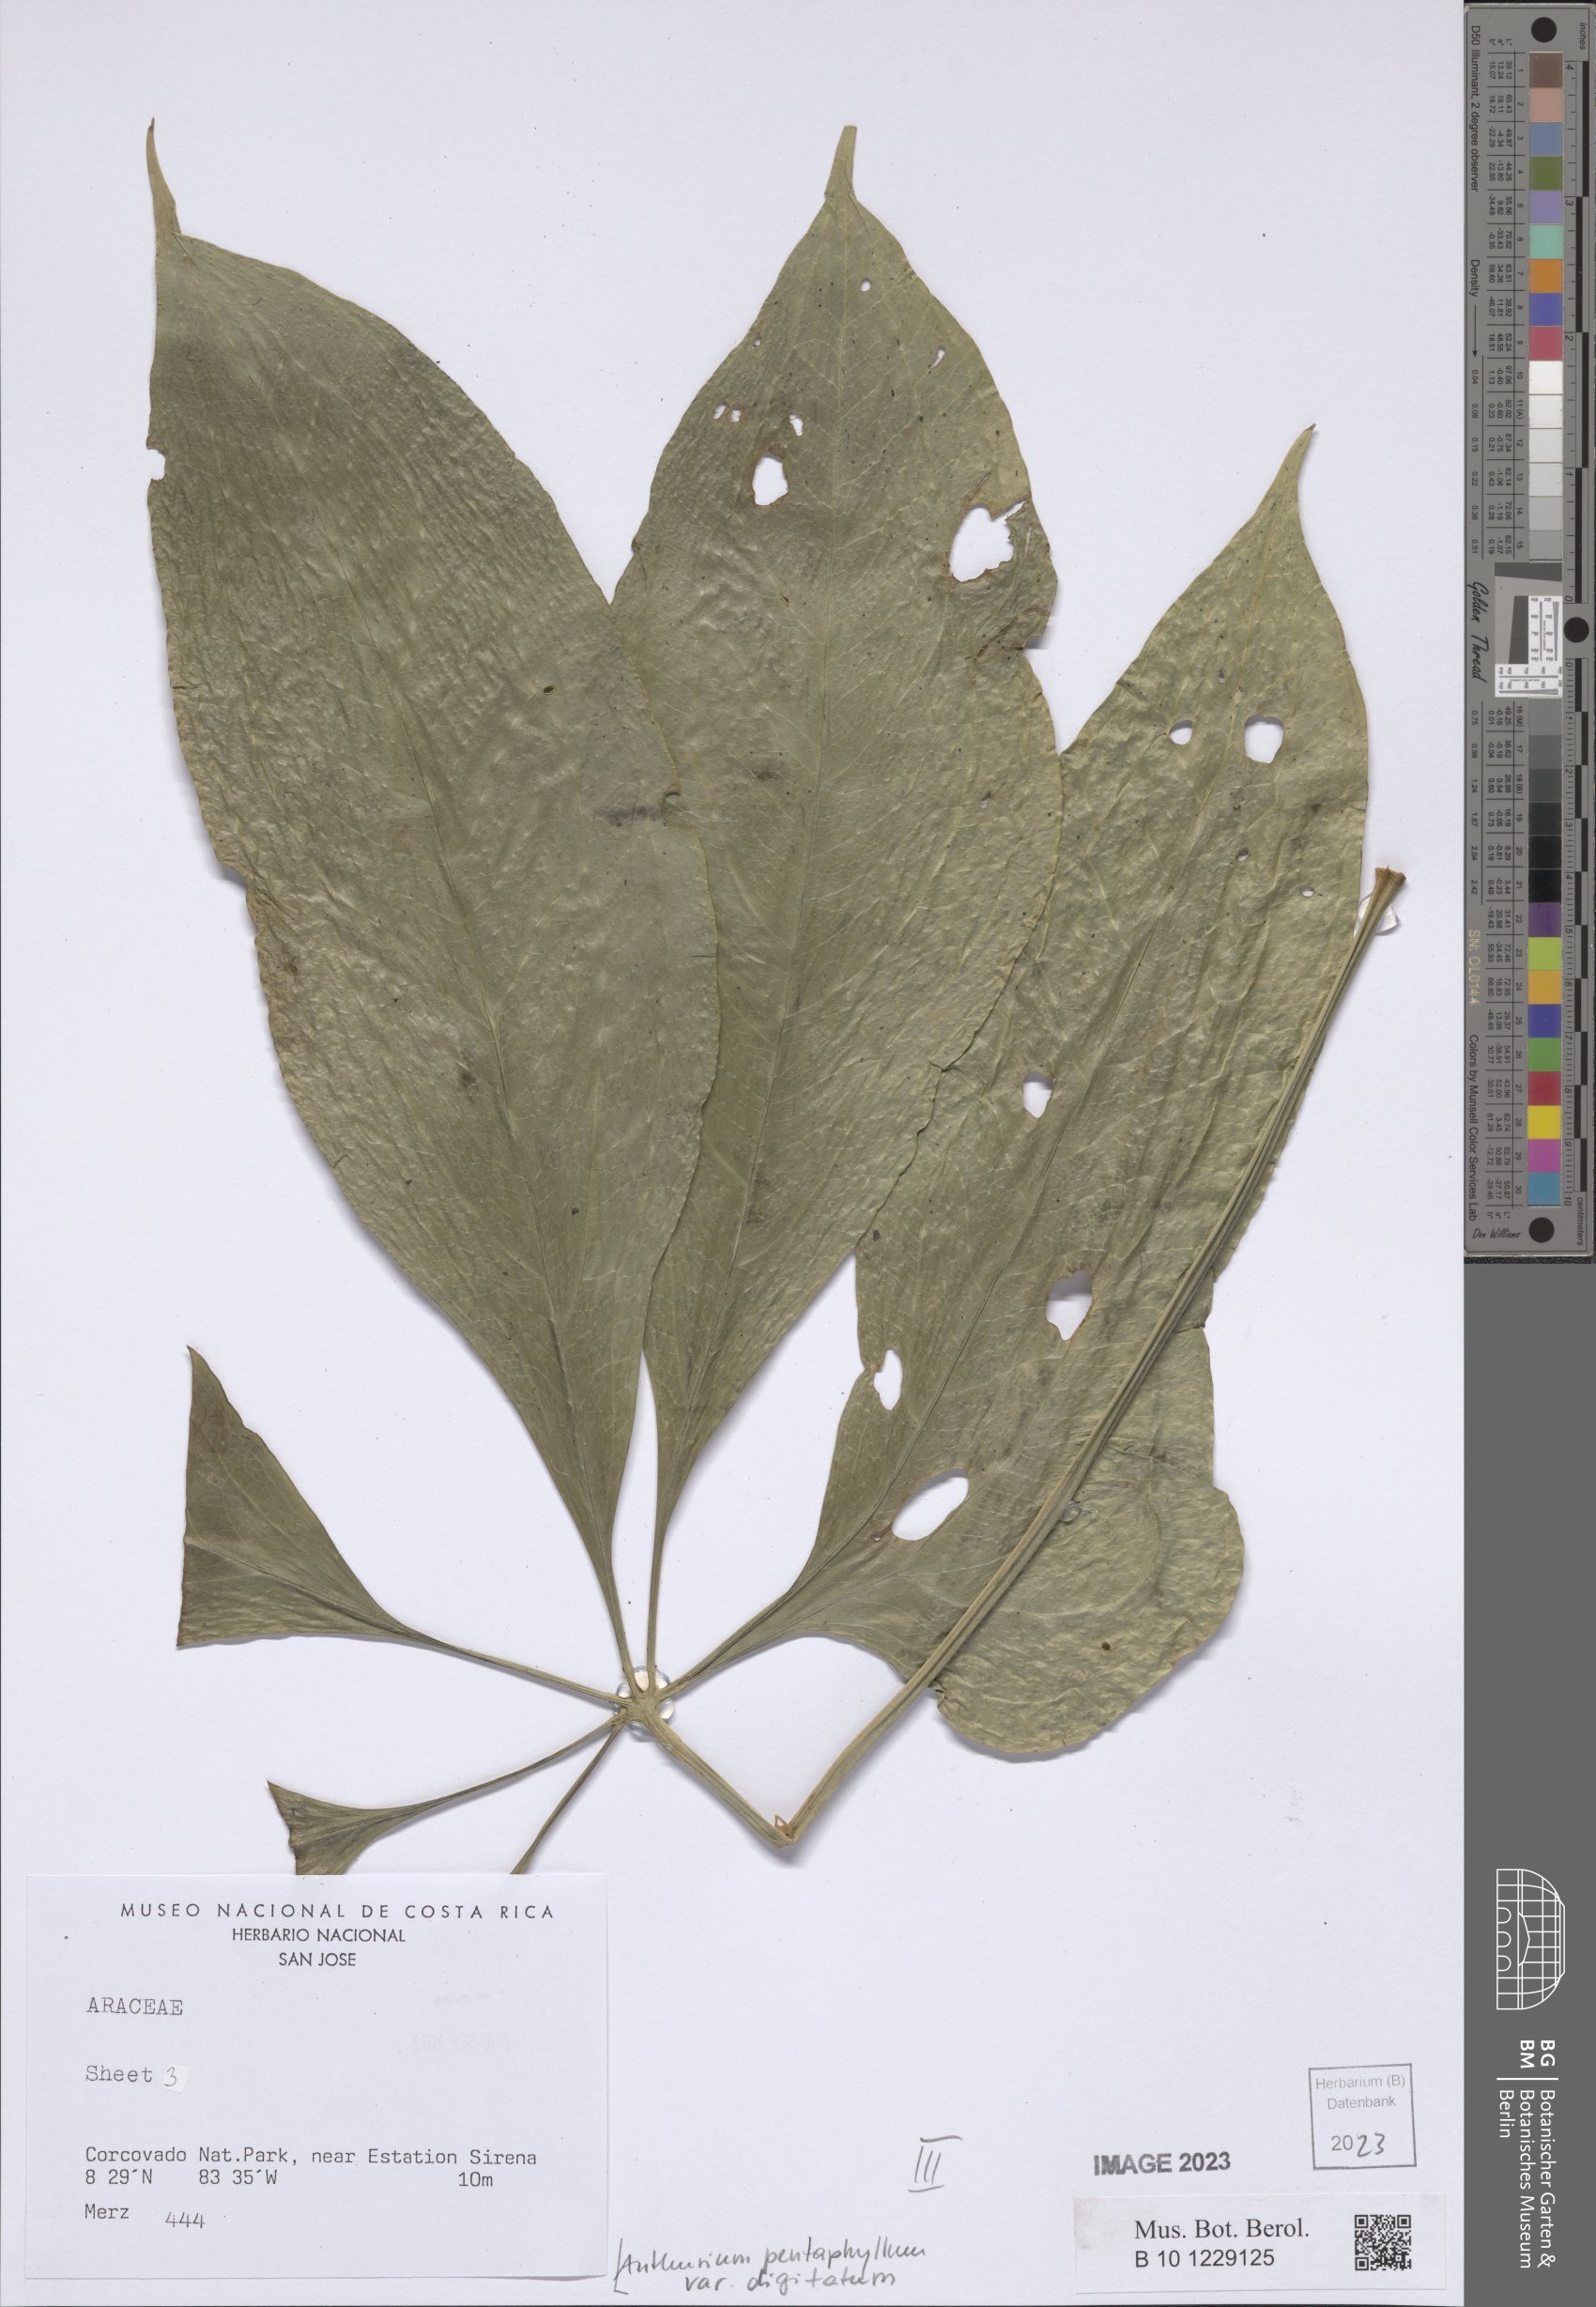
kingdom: Plantae
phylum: Tracheophyta
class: Liliopsida
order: Alismatales
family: Araceae
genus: Anthurium
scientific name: Anthurium digitatum
